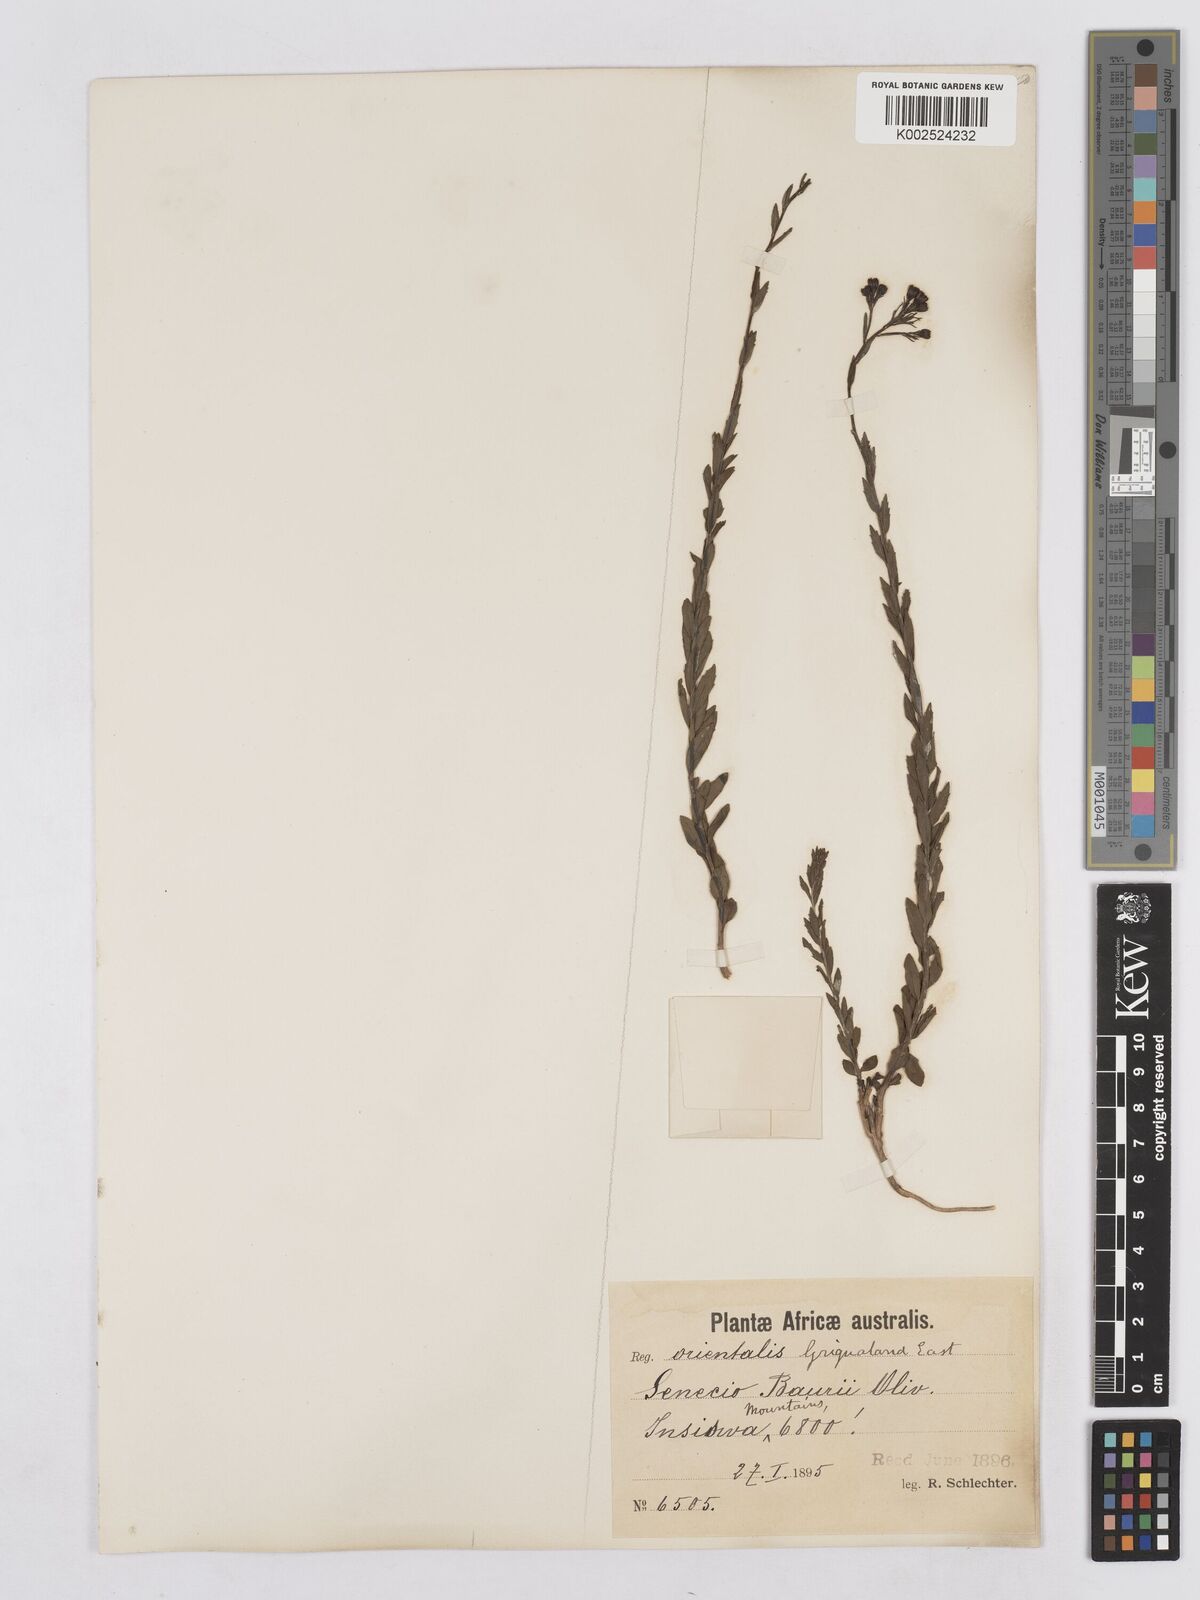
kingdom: Plantae
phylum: Tracheophyta
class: Magnoliopsida
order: Asterales
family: Asteraceae
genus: Senecio
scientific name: Senecio baurii
